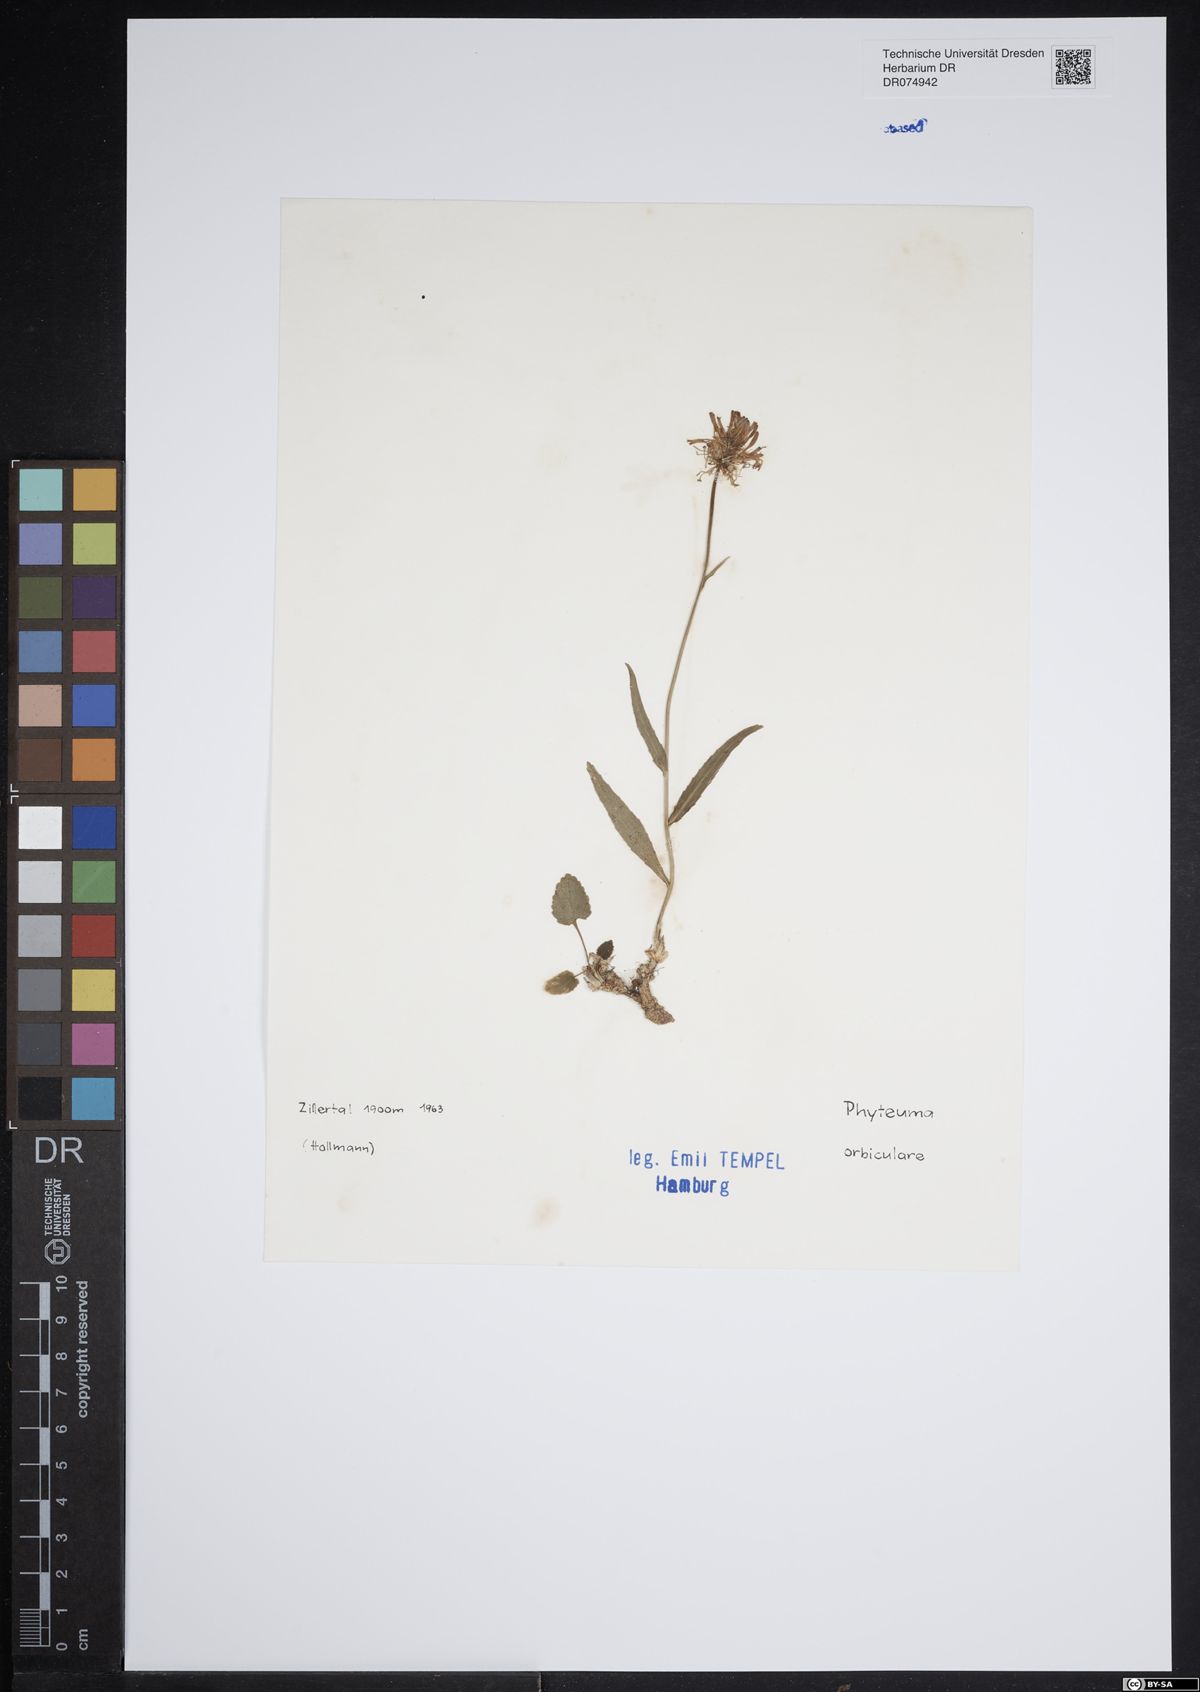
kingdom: Plantae
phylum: Tracheophyta
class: Magnoliopsida
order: Asterales
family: Campanulaceae
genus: Phyteuma
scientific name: Phyteuma orbiculare
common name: Round-headed rampion
